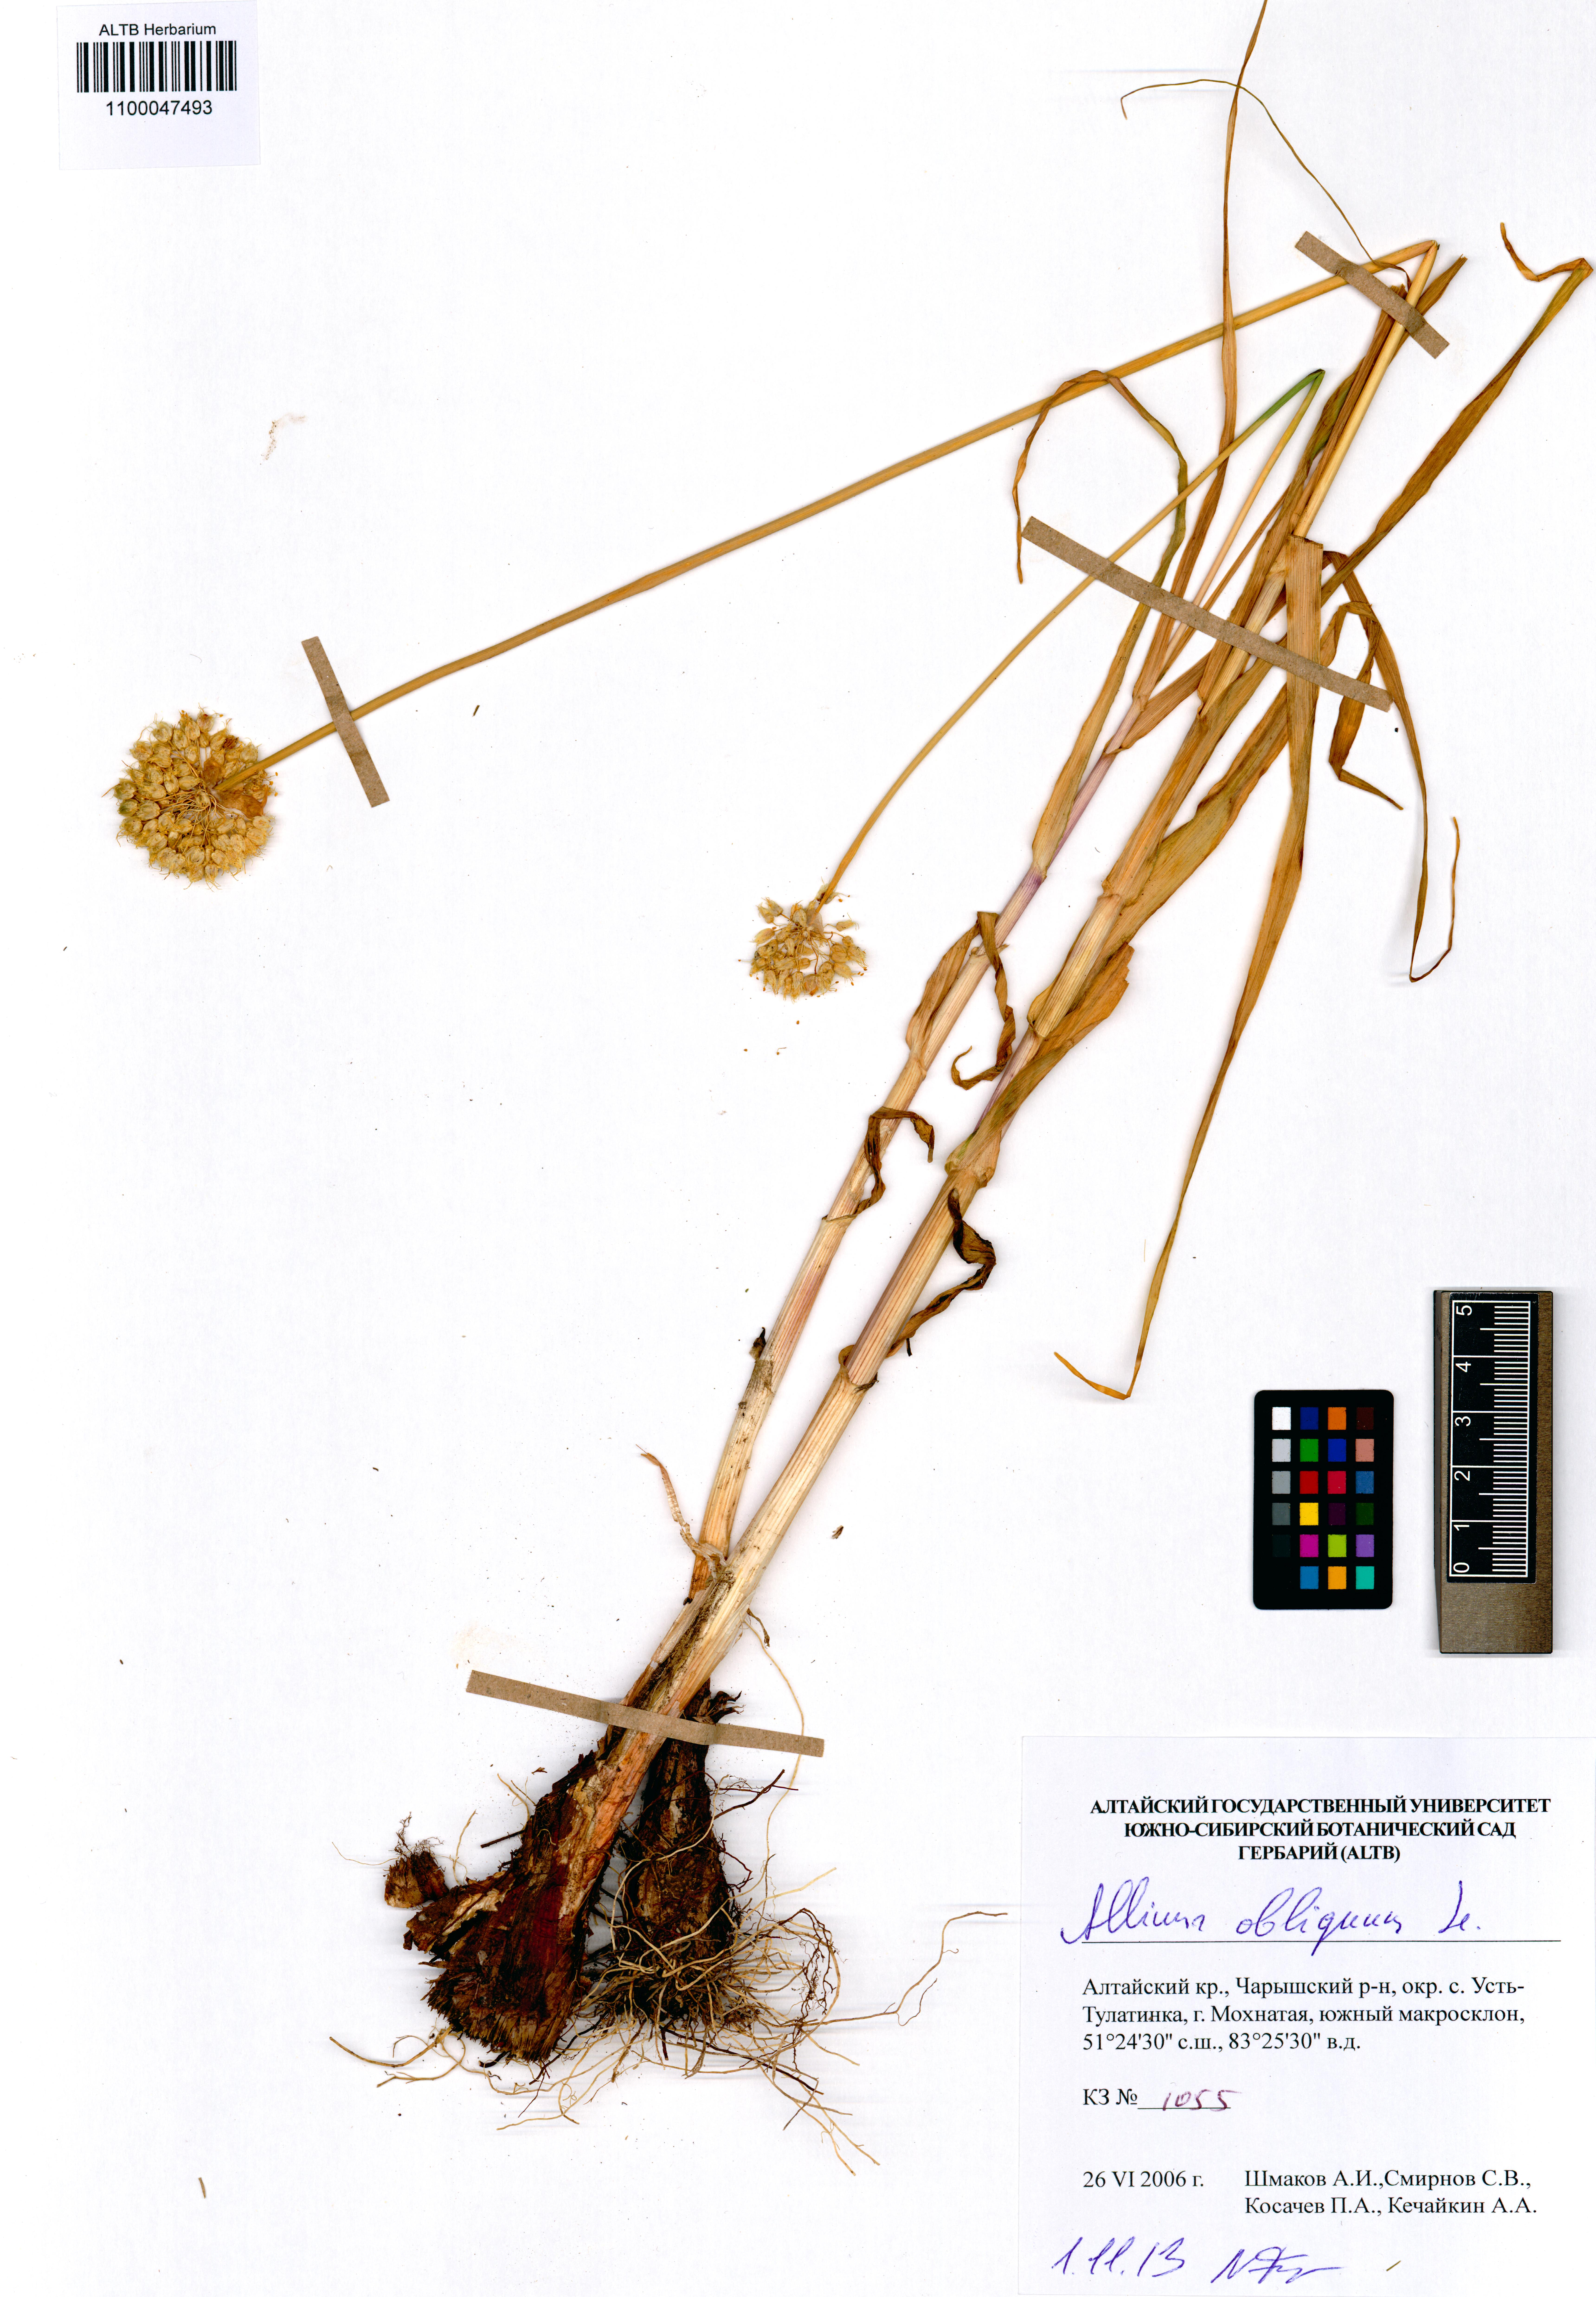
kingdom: Plantae
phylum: Tracheophyta
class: Liliopsida
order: Asparagales
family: Amaryllidaceae
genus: Allium
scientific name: Allium obliquum
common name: Oblique onion
